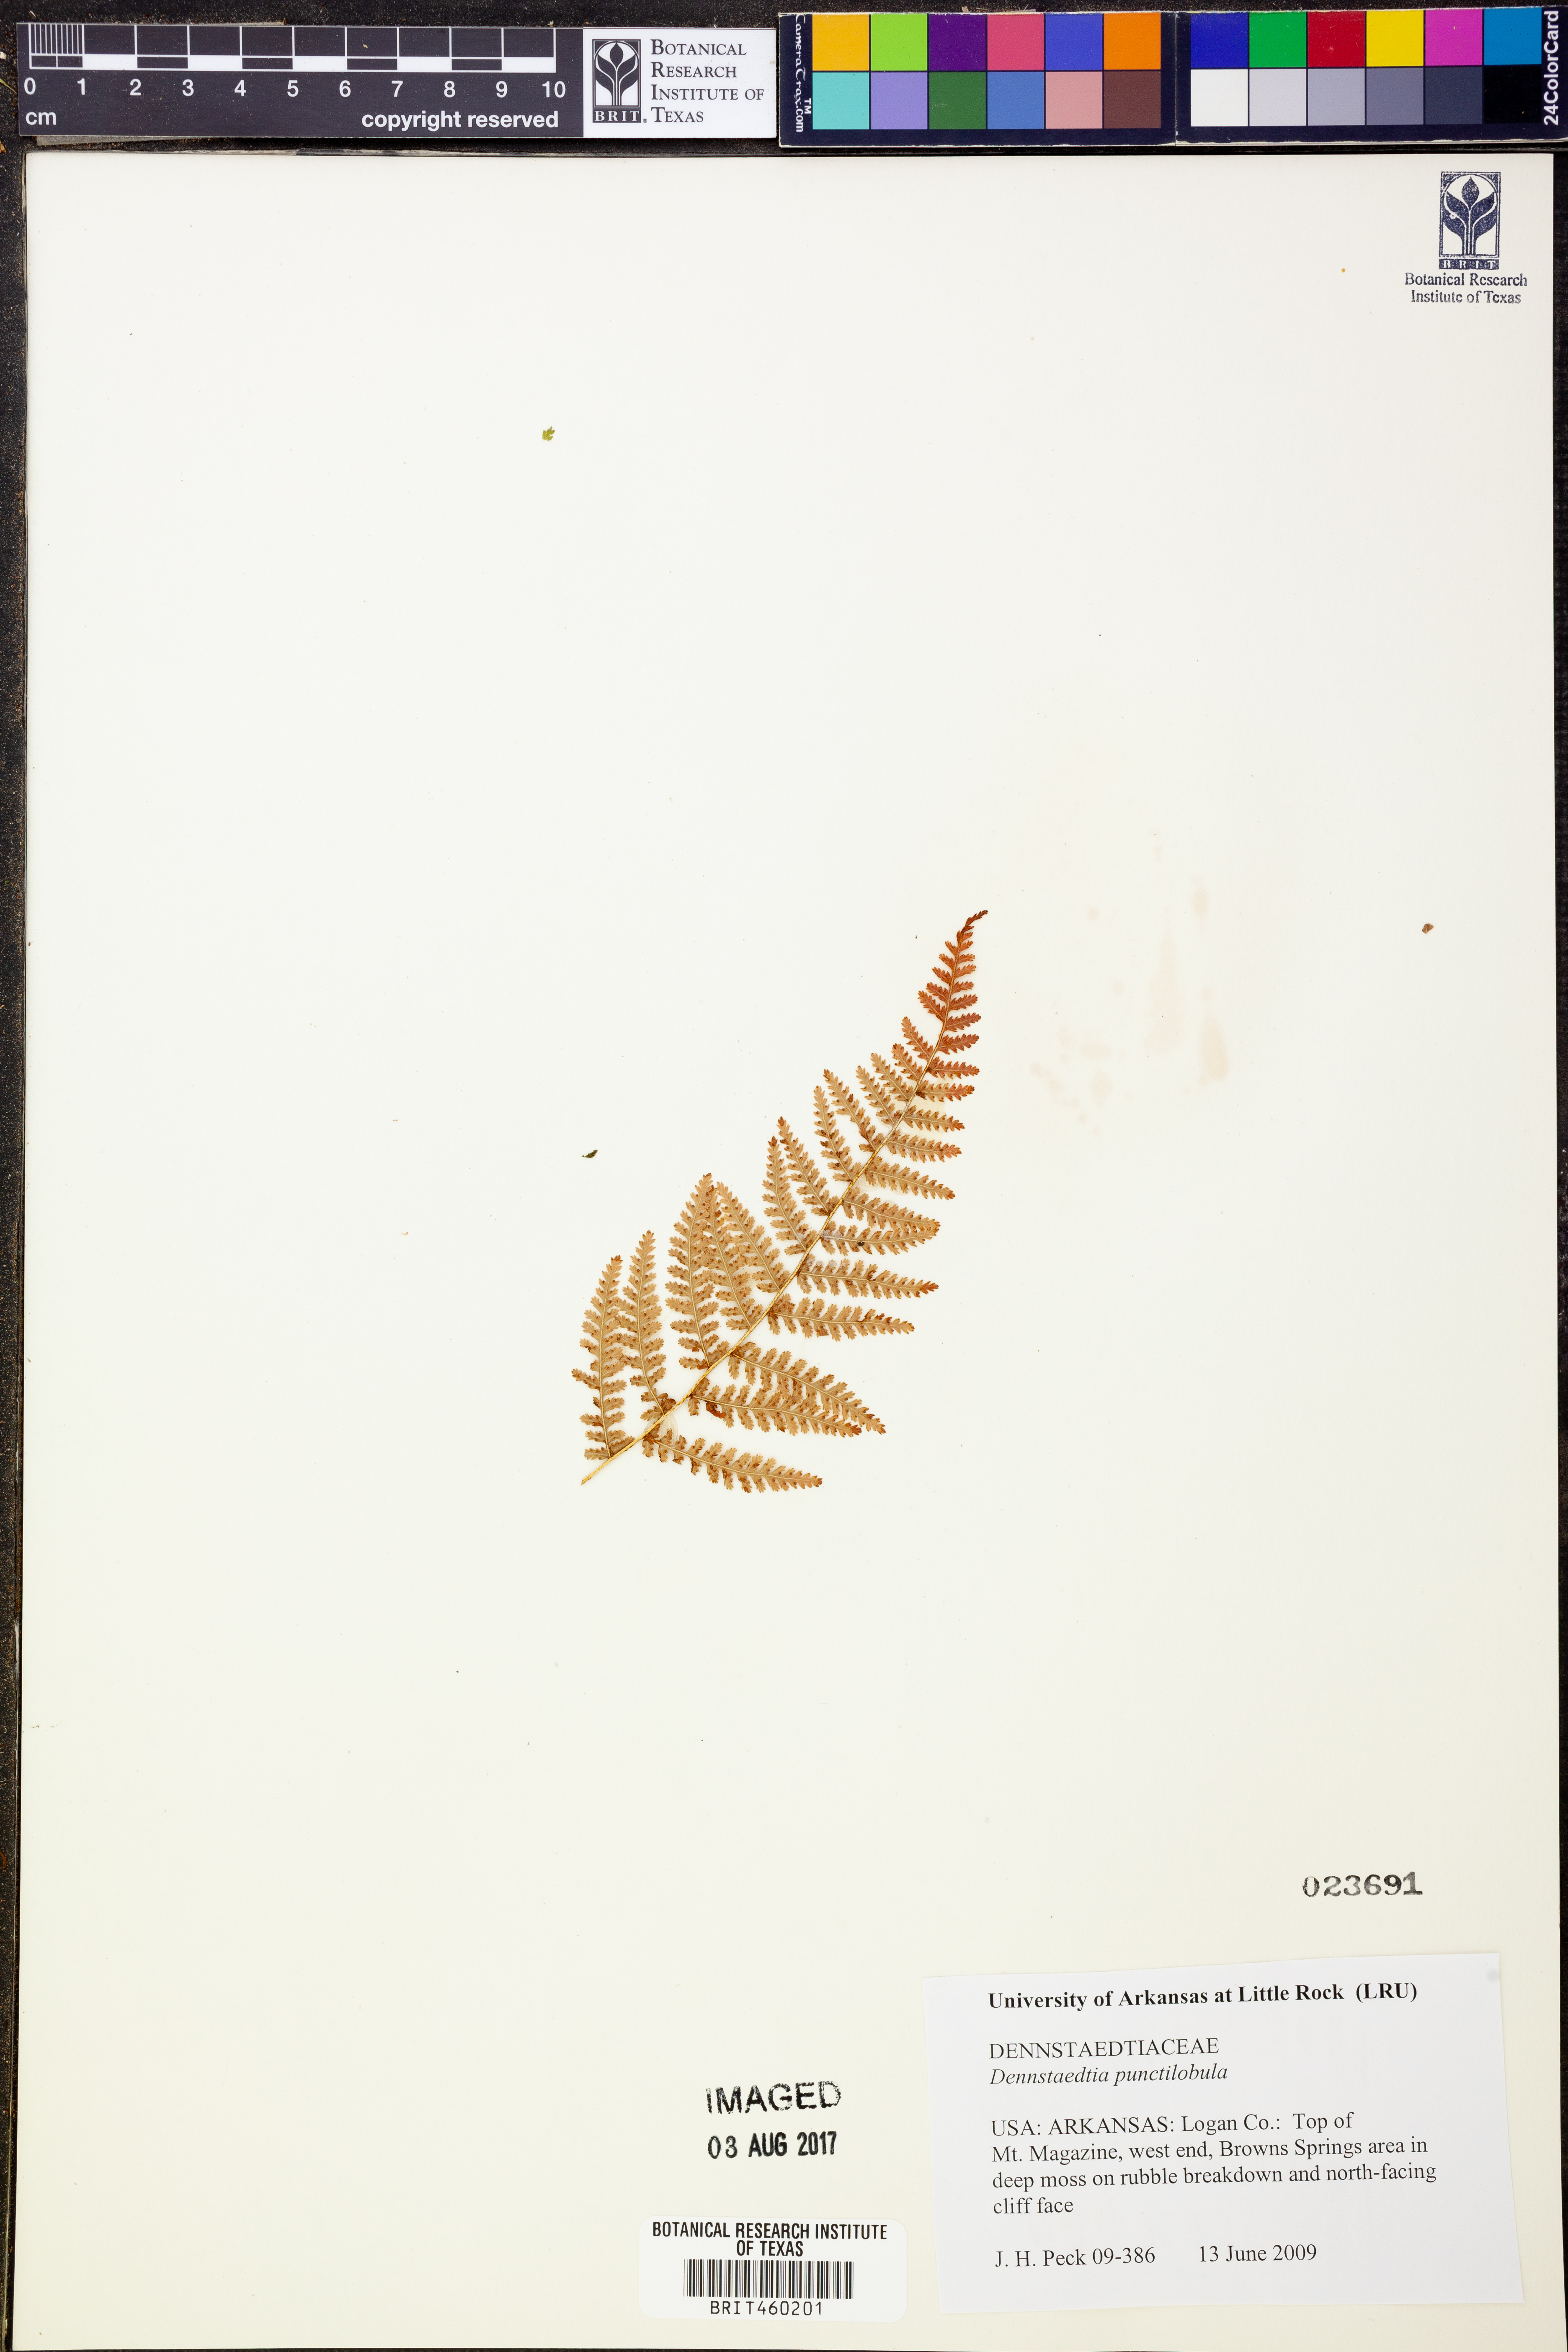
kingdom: Plantae
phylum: Tracheophyta
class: Polypodiopsida
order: Polypodiales
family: Dennstaedtiaceae
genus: Sitobolium
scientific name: Sitobolium punctilobum
